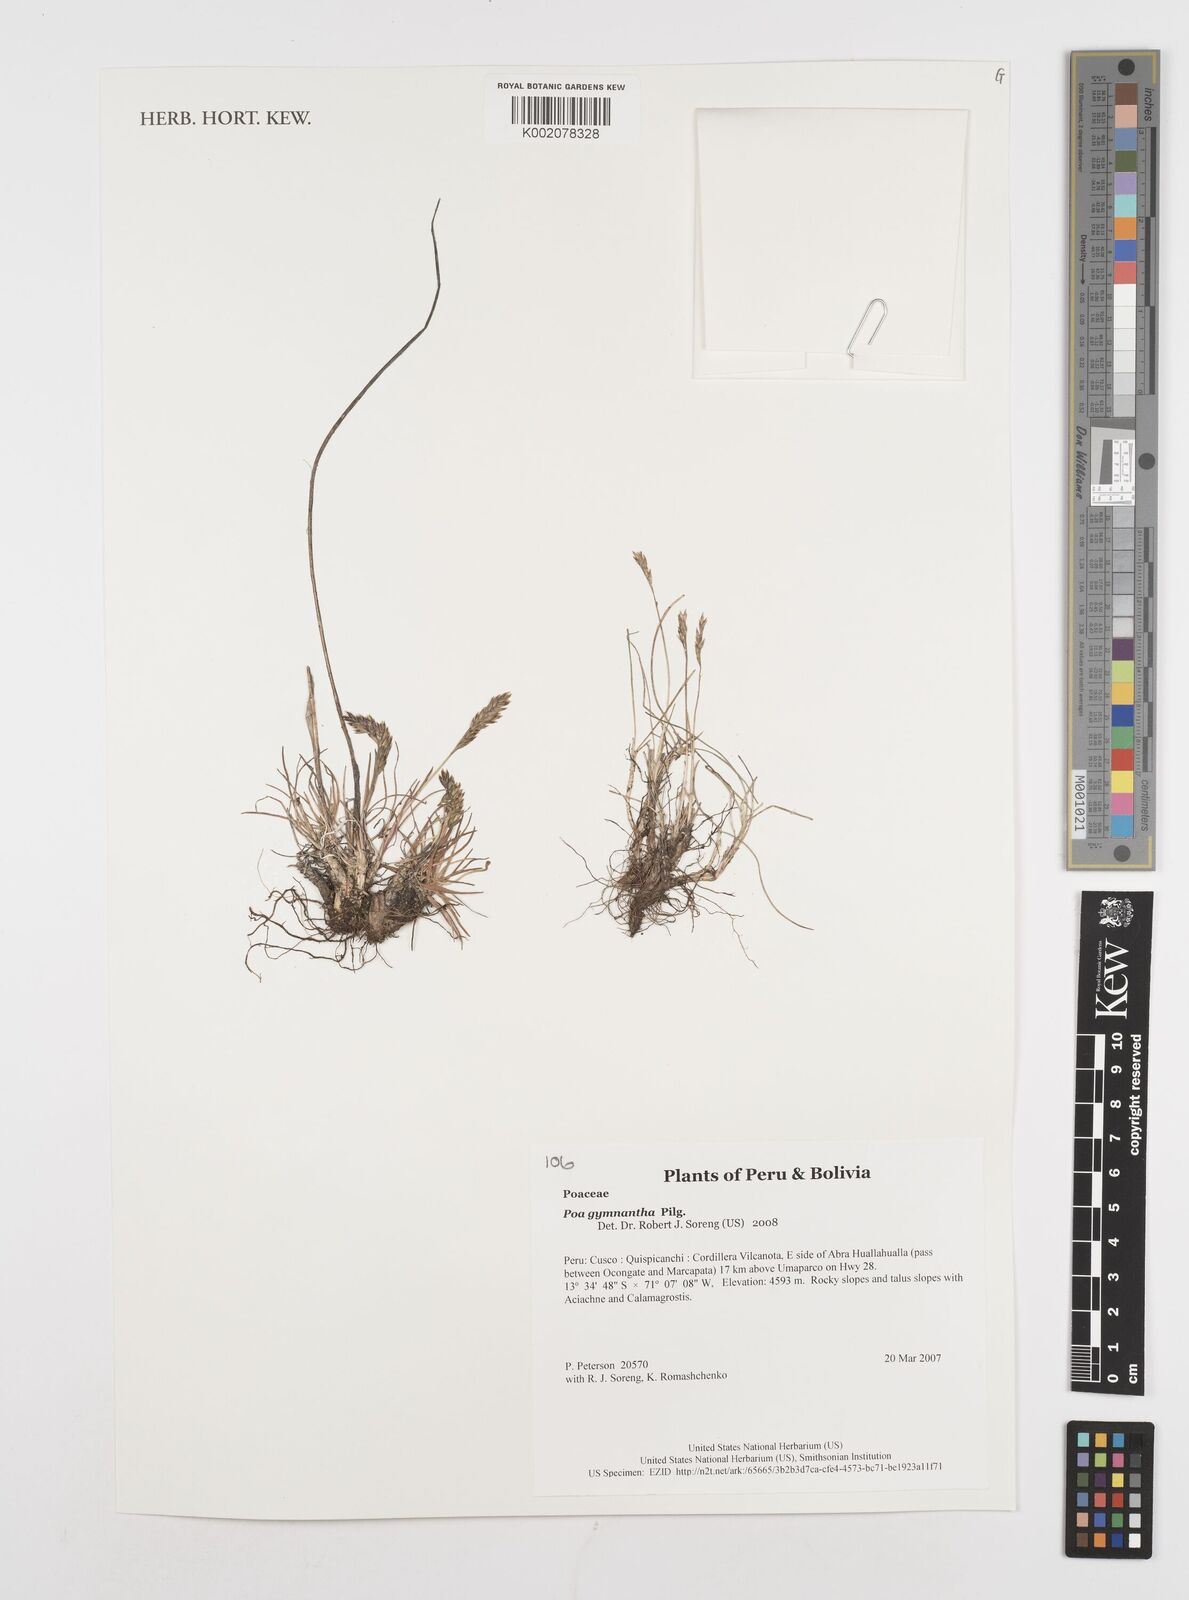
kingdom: Plantae
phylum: Tracheophyta
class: Liliopsida
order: Poales
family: Poaceae
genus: Poa
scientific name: Poa gymnantha
